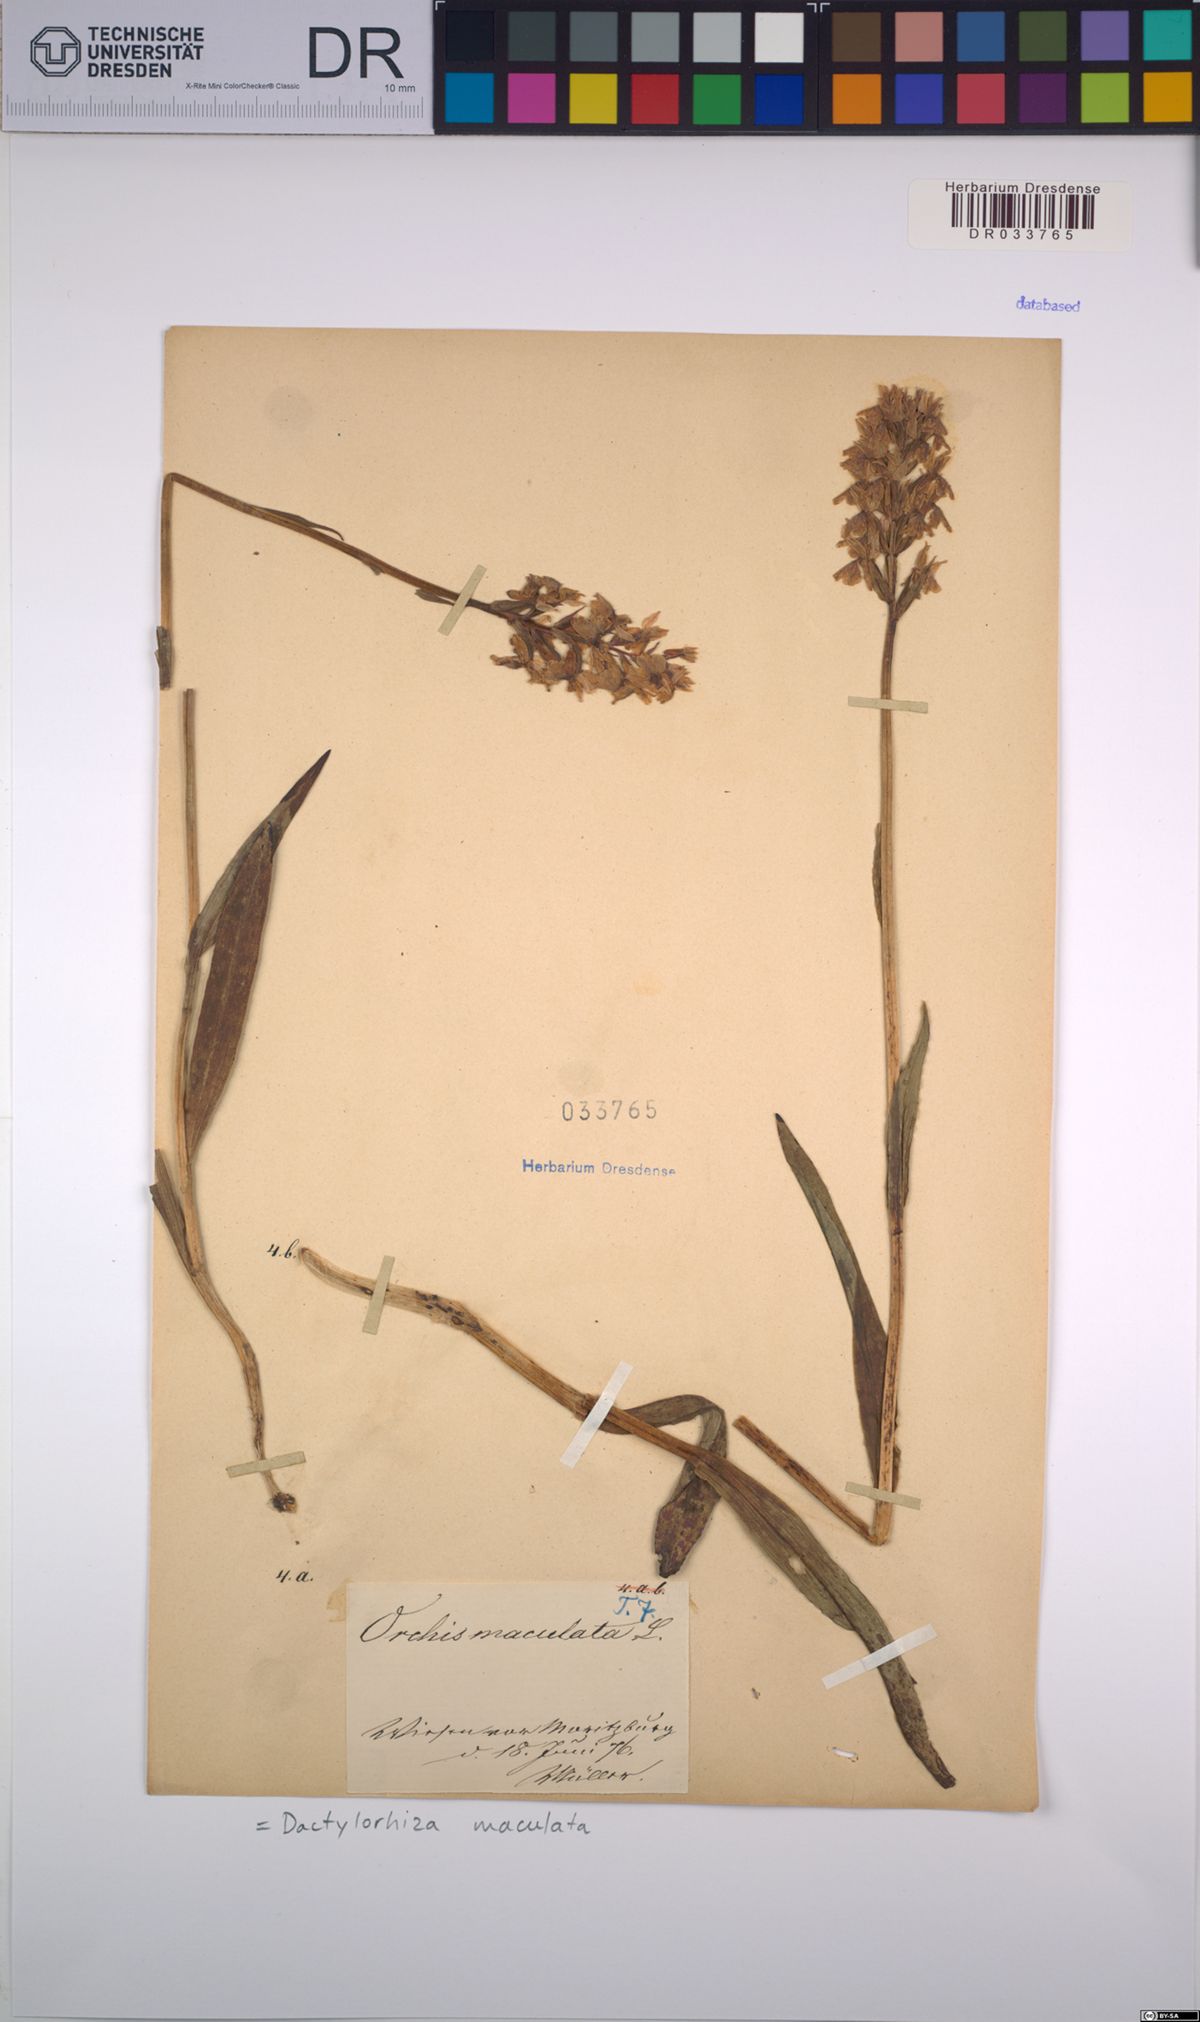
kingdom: Plantae
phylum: Tracheophyta
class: Liliopsida
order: Asparagales
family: Orchidaceae
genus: Dactylorhiza
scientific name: Dactylorhiza maculata
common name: Heath spotted-orchid
